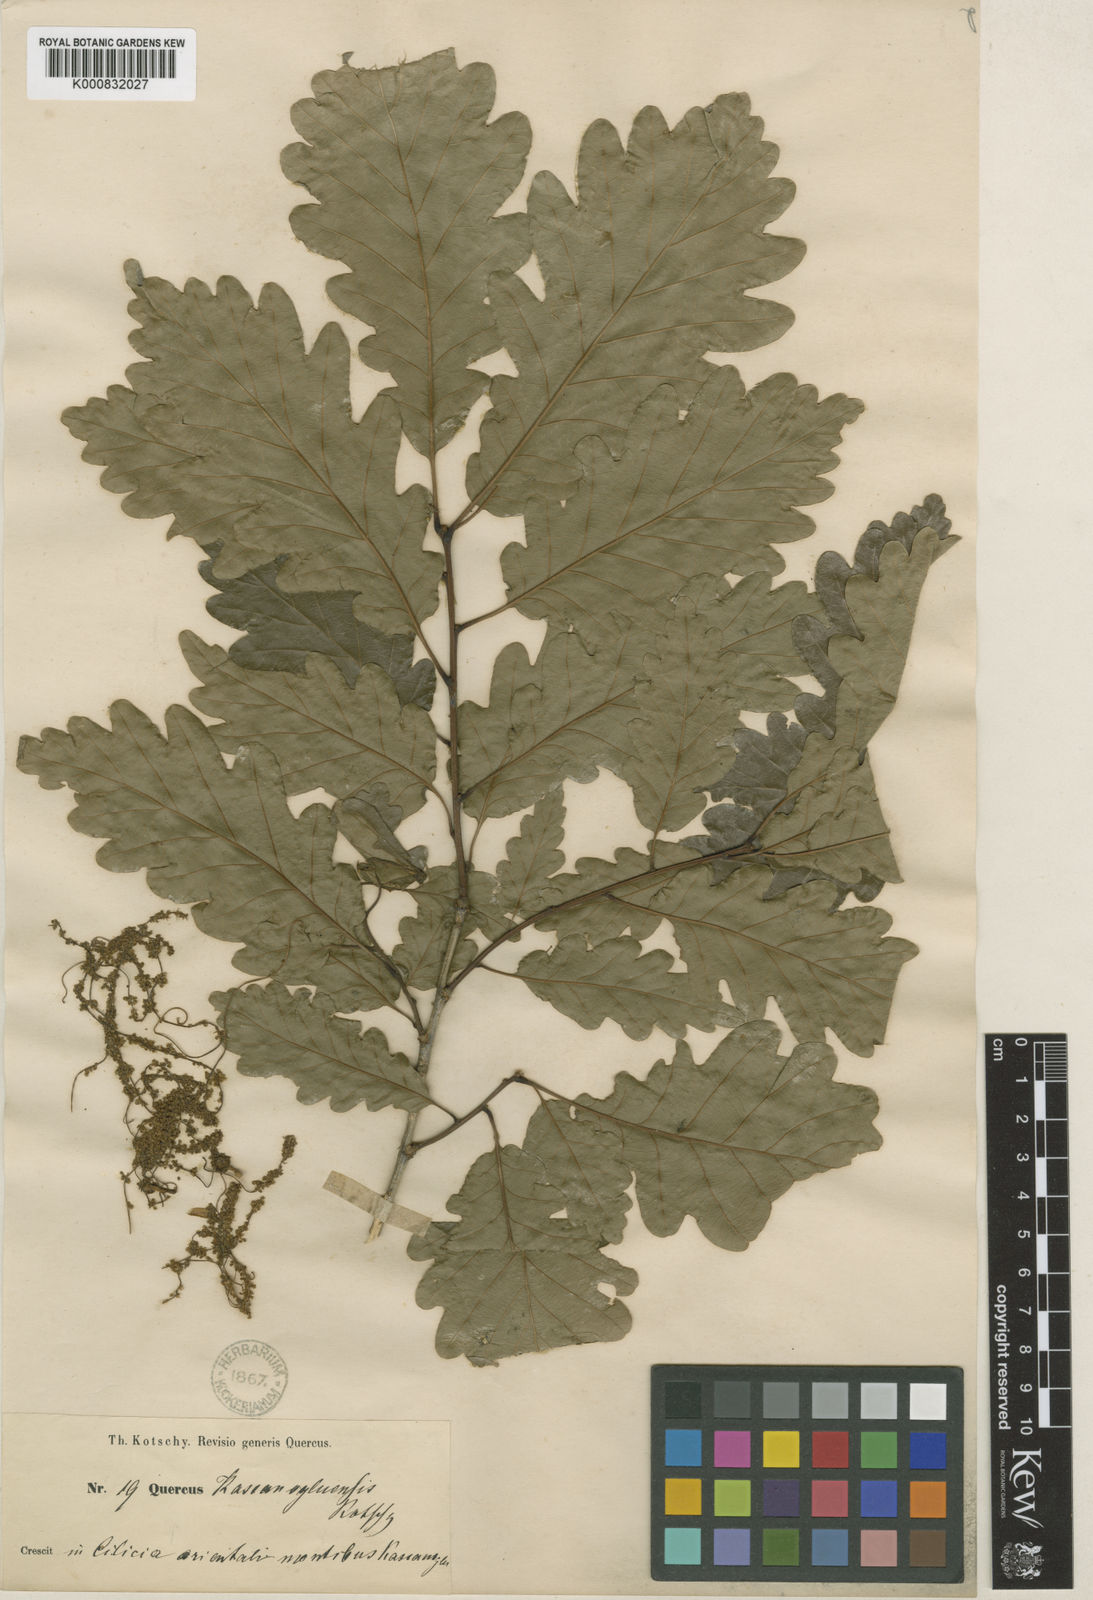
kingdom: Plantae
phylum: Tracheophyta
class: Magnoliopsida
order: Fagales
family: Fagaceae
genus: Quercus
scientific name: Quercus
